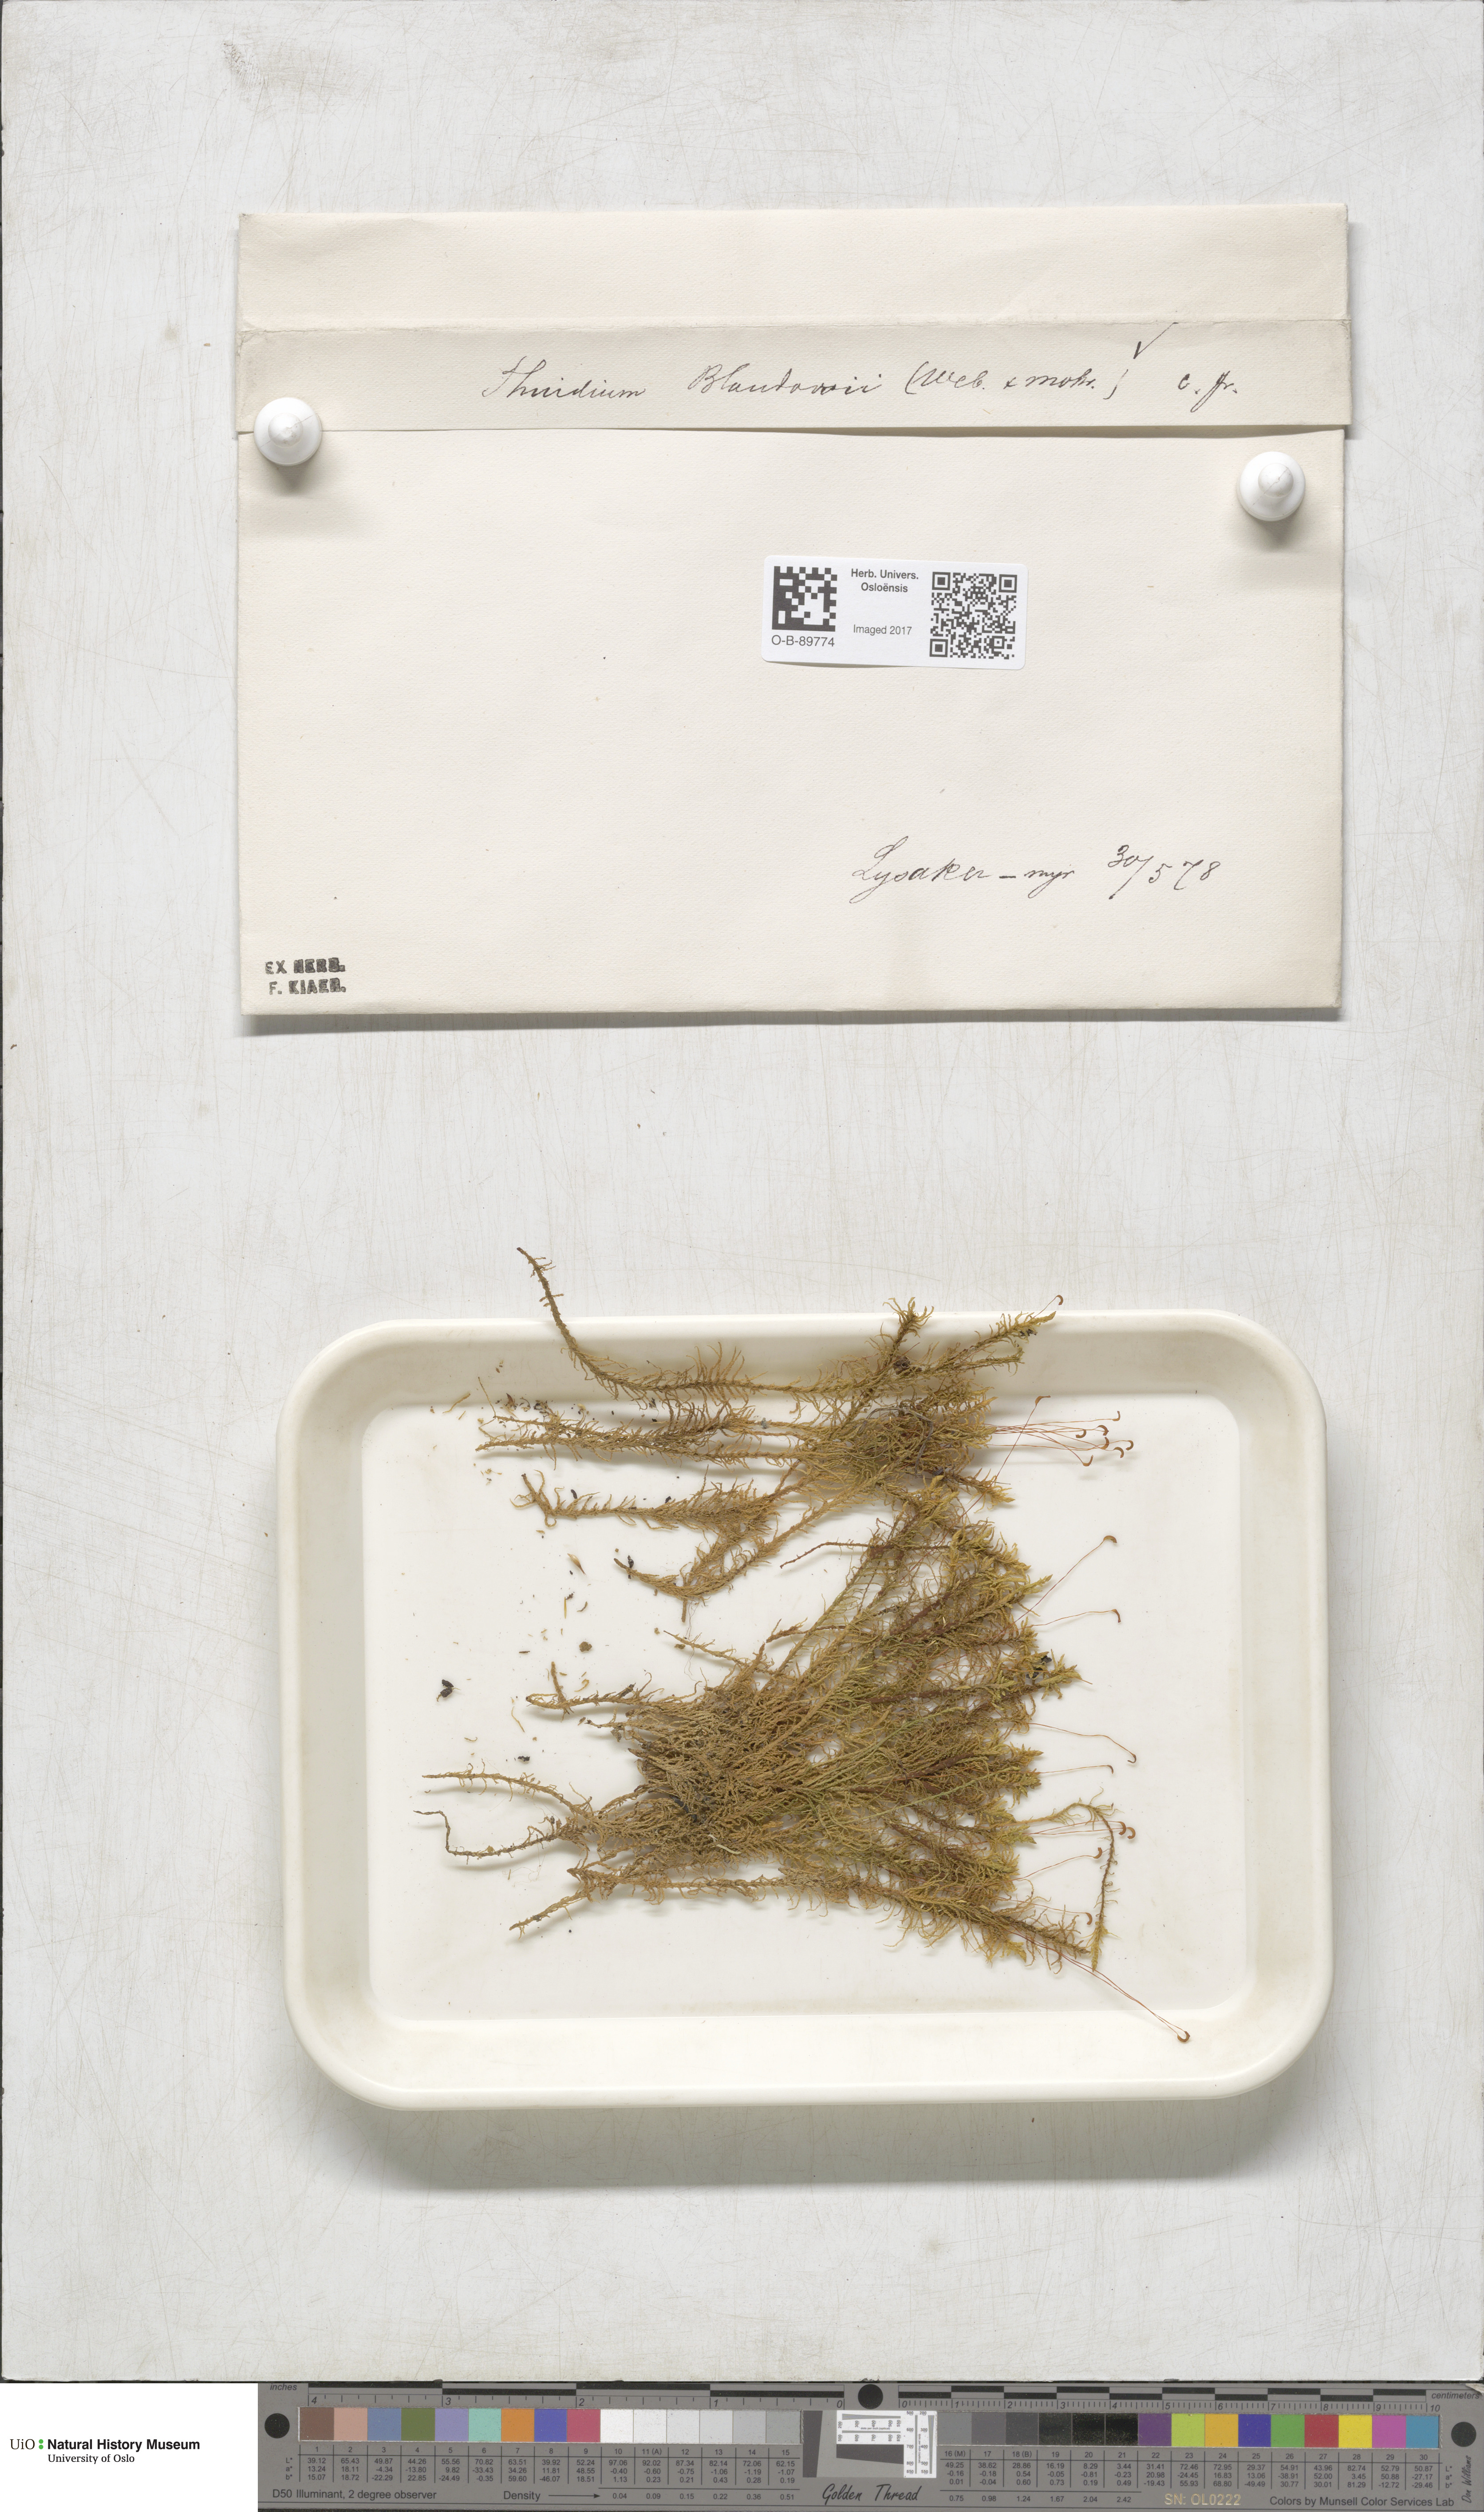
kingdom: Plantae
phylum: Bryophyta
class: Bryopsida
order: Hypnales
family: Helodiaceae
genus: Helodium
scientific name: Helodium blandowii
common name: Blandow's tamarisk-moss
